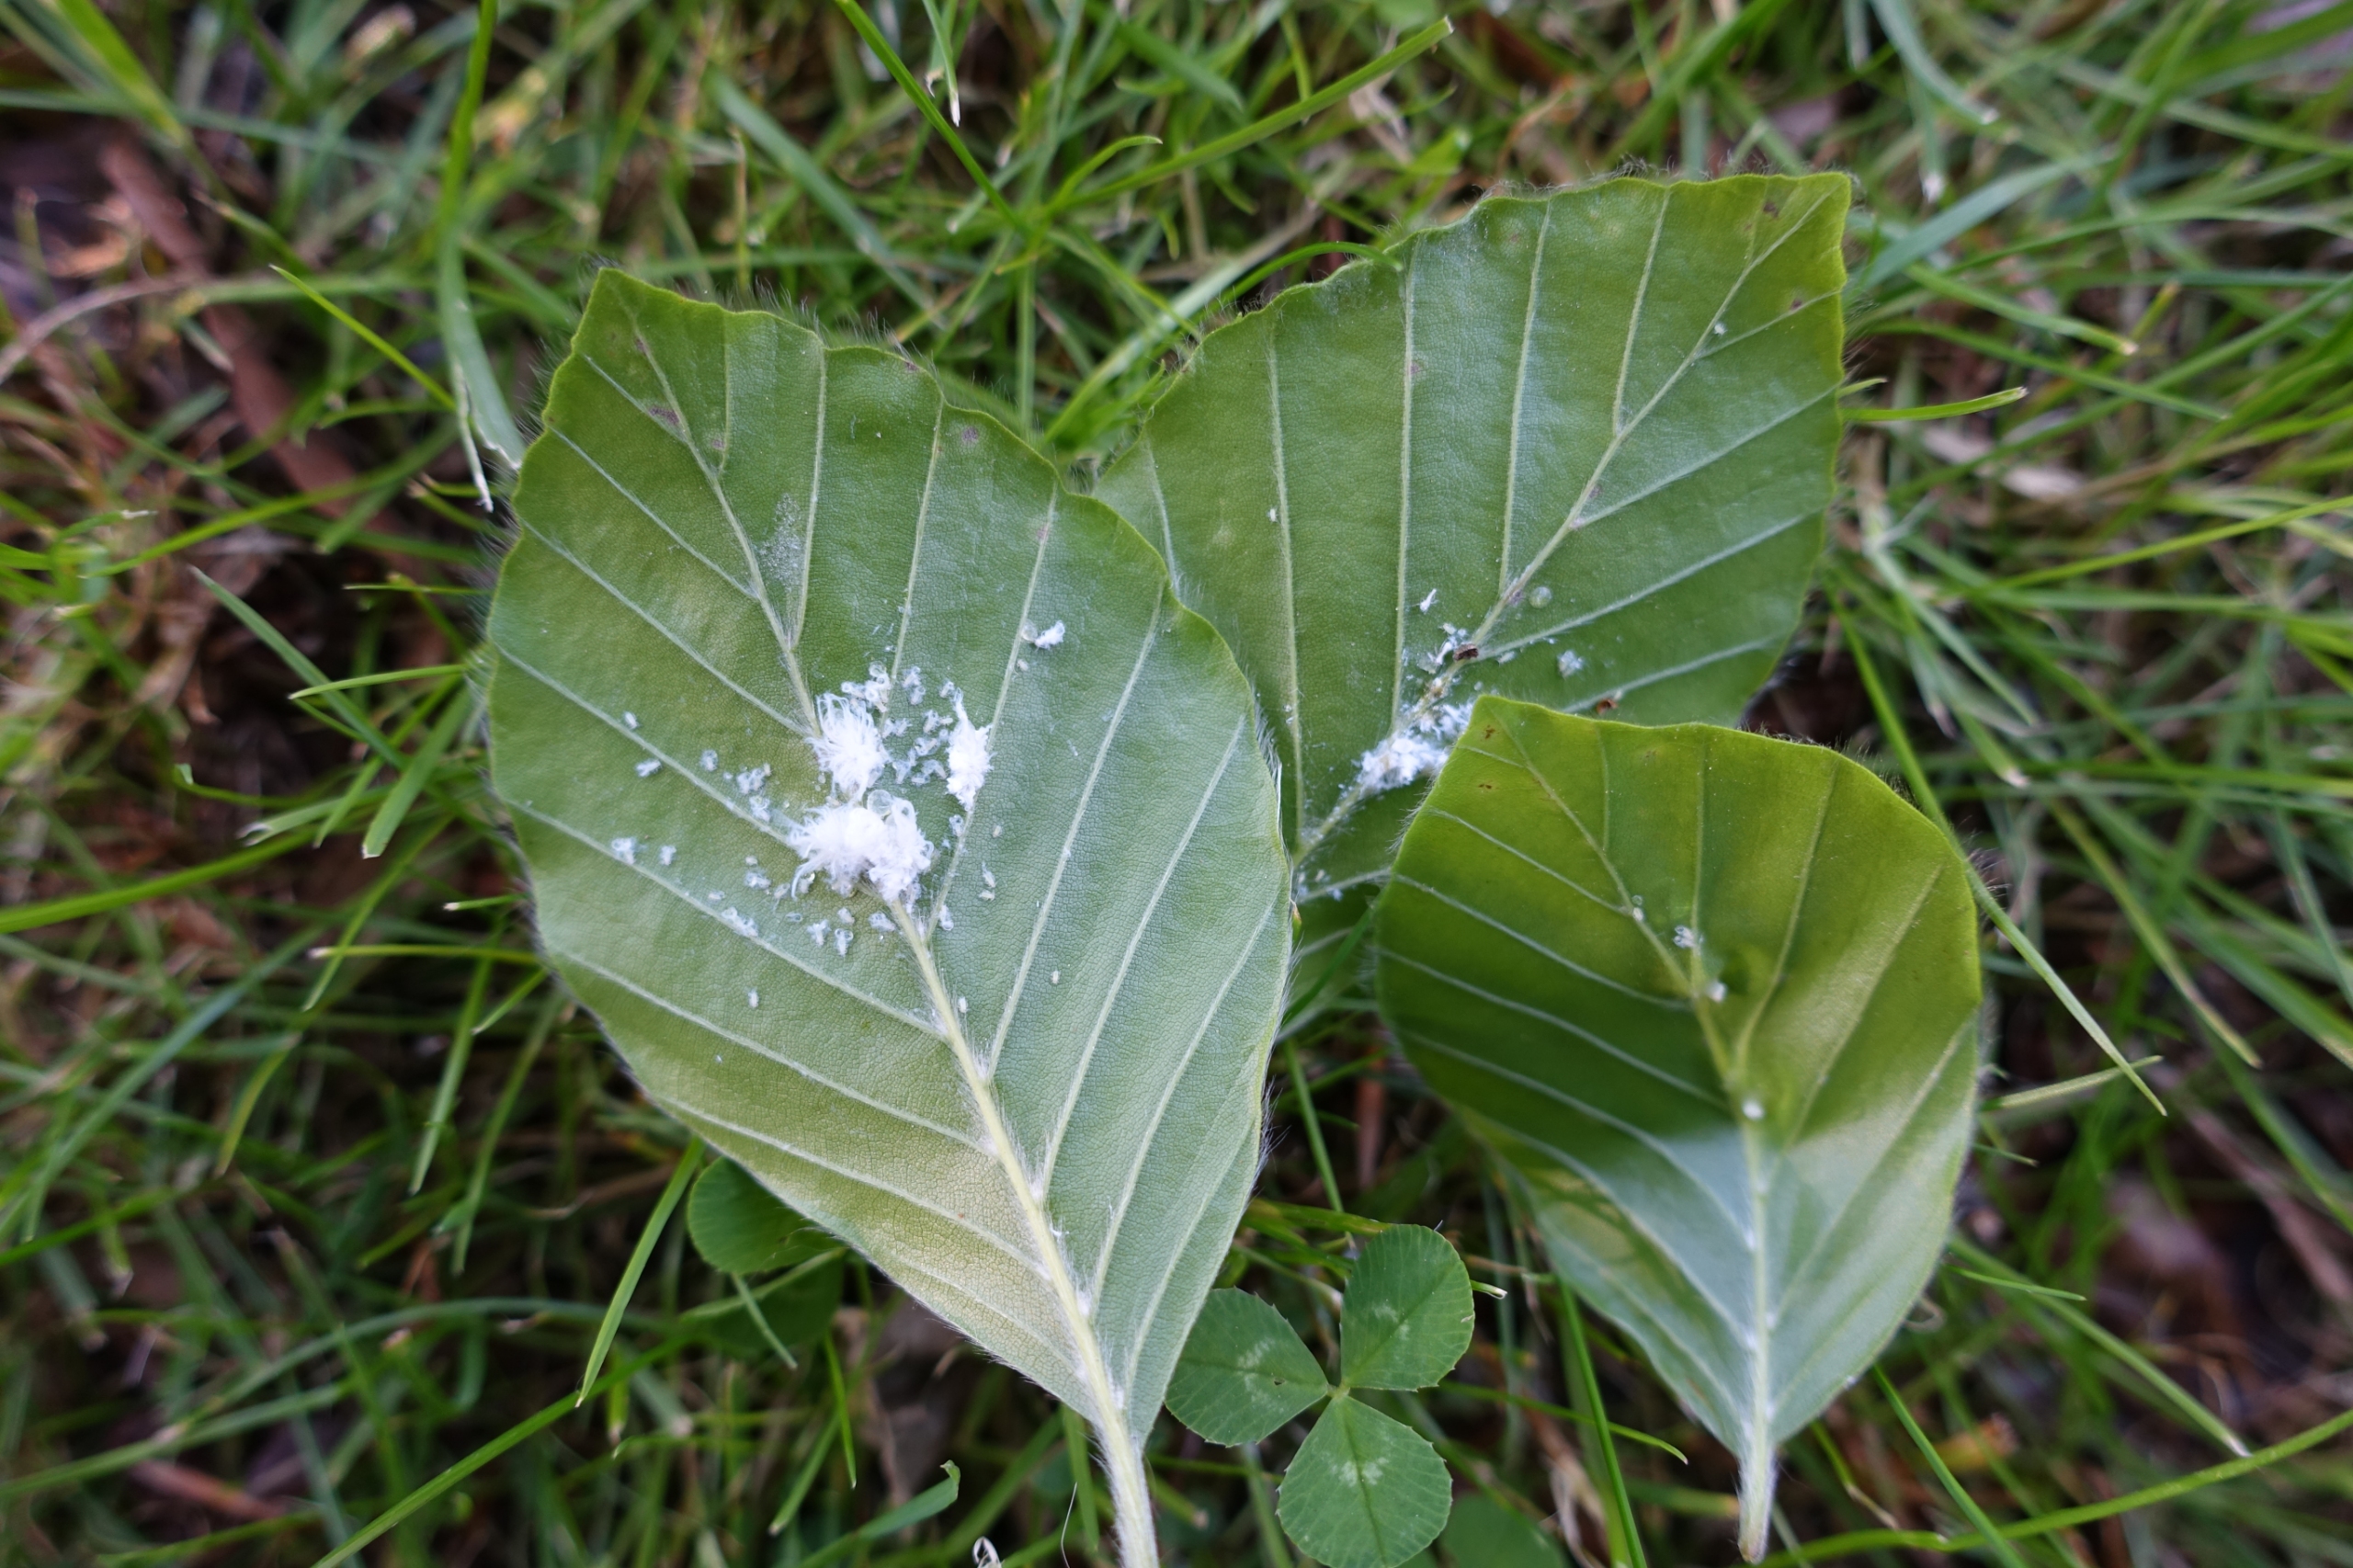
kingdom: Animalia
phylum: Arthropoda
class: Insecta
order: Hemiptera
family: Aphididae
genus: Phyllaphis
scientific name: Phyllaphis fagi
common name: Bøgebladlus
